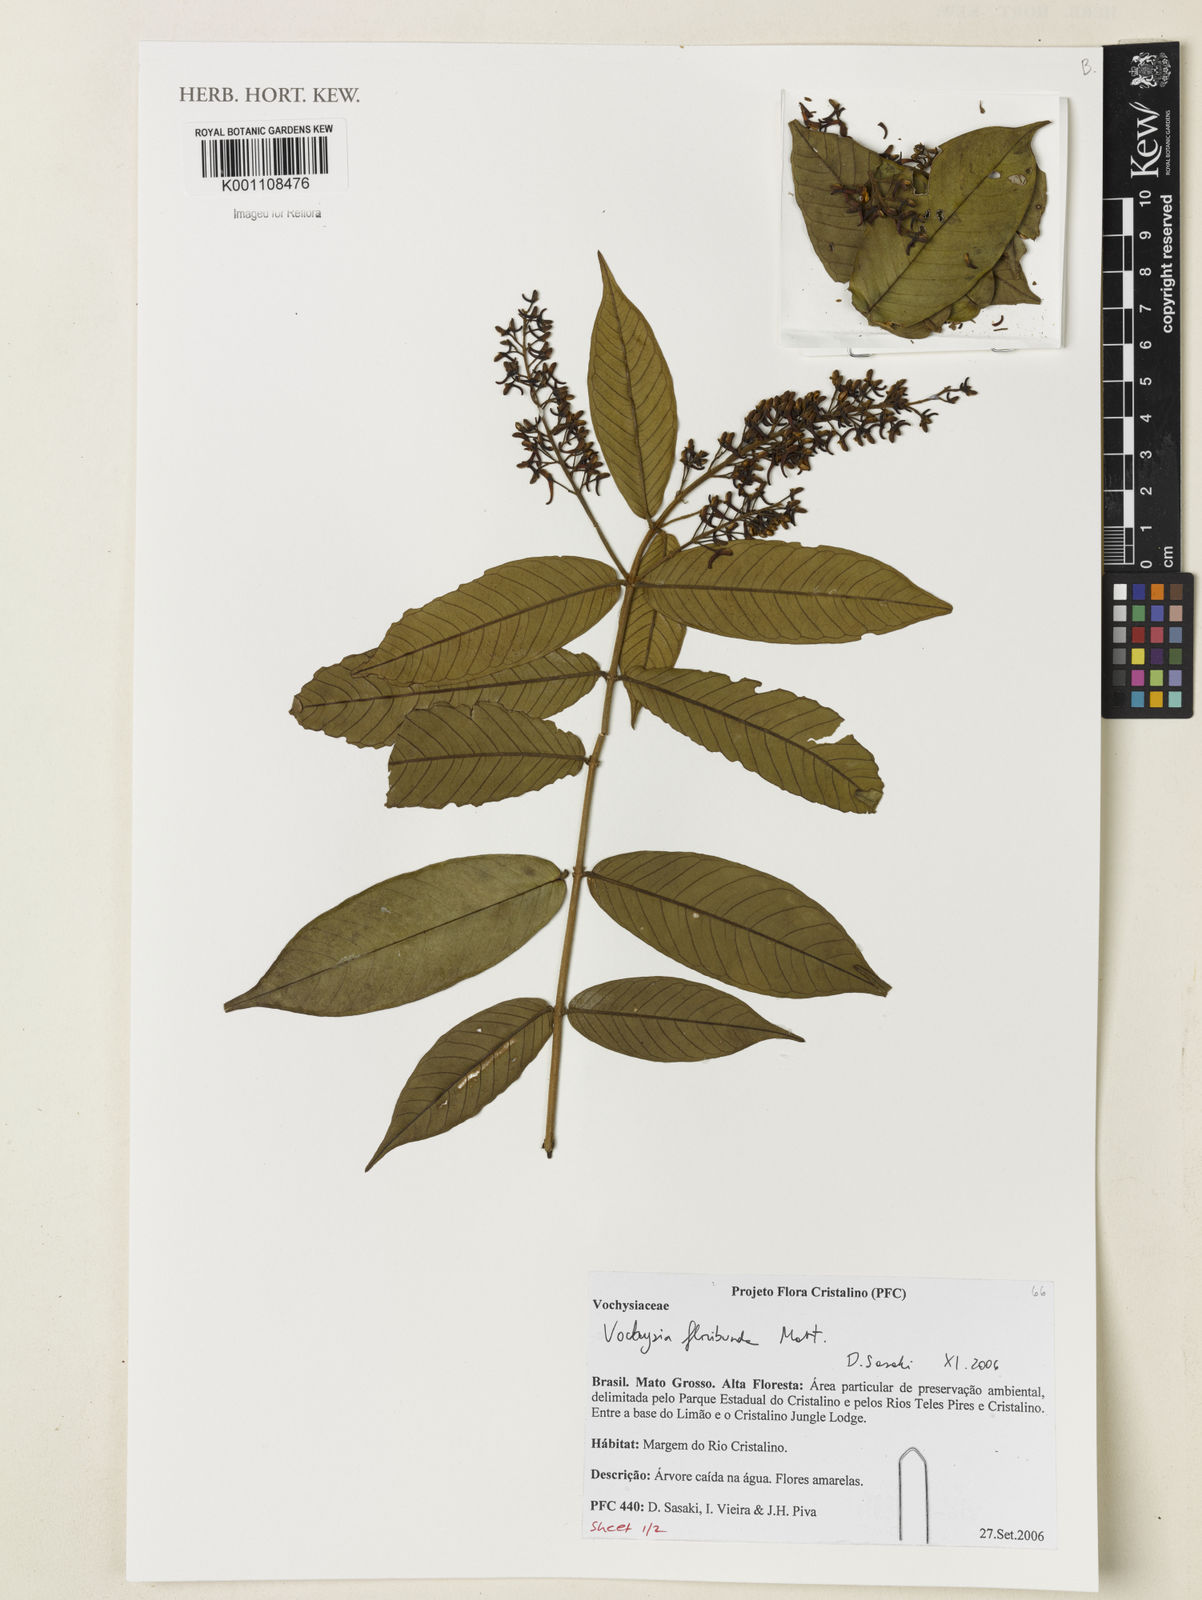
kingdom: Plantae
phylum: Tracheophyta
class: Magnoliopsida
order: Myrtales
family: Vochysiaceae
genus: Vochysia
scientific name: Vochysia floribunda
